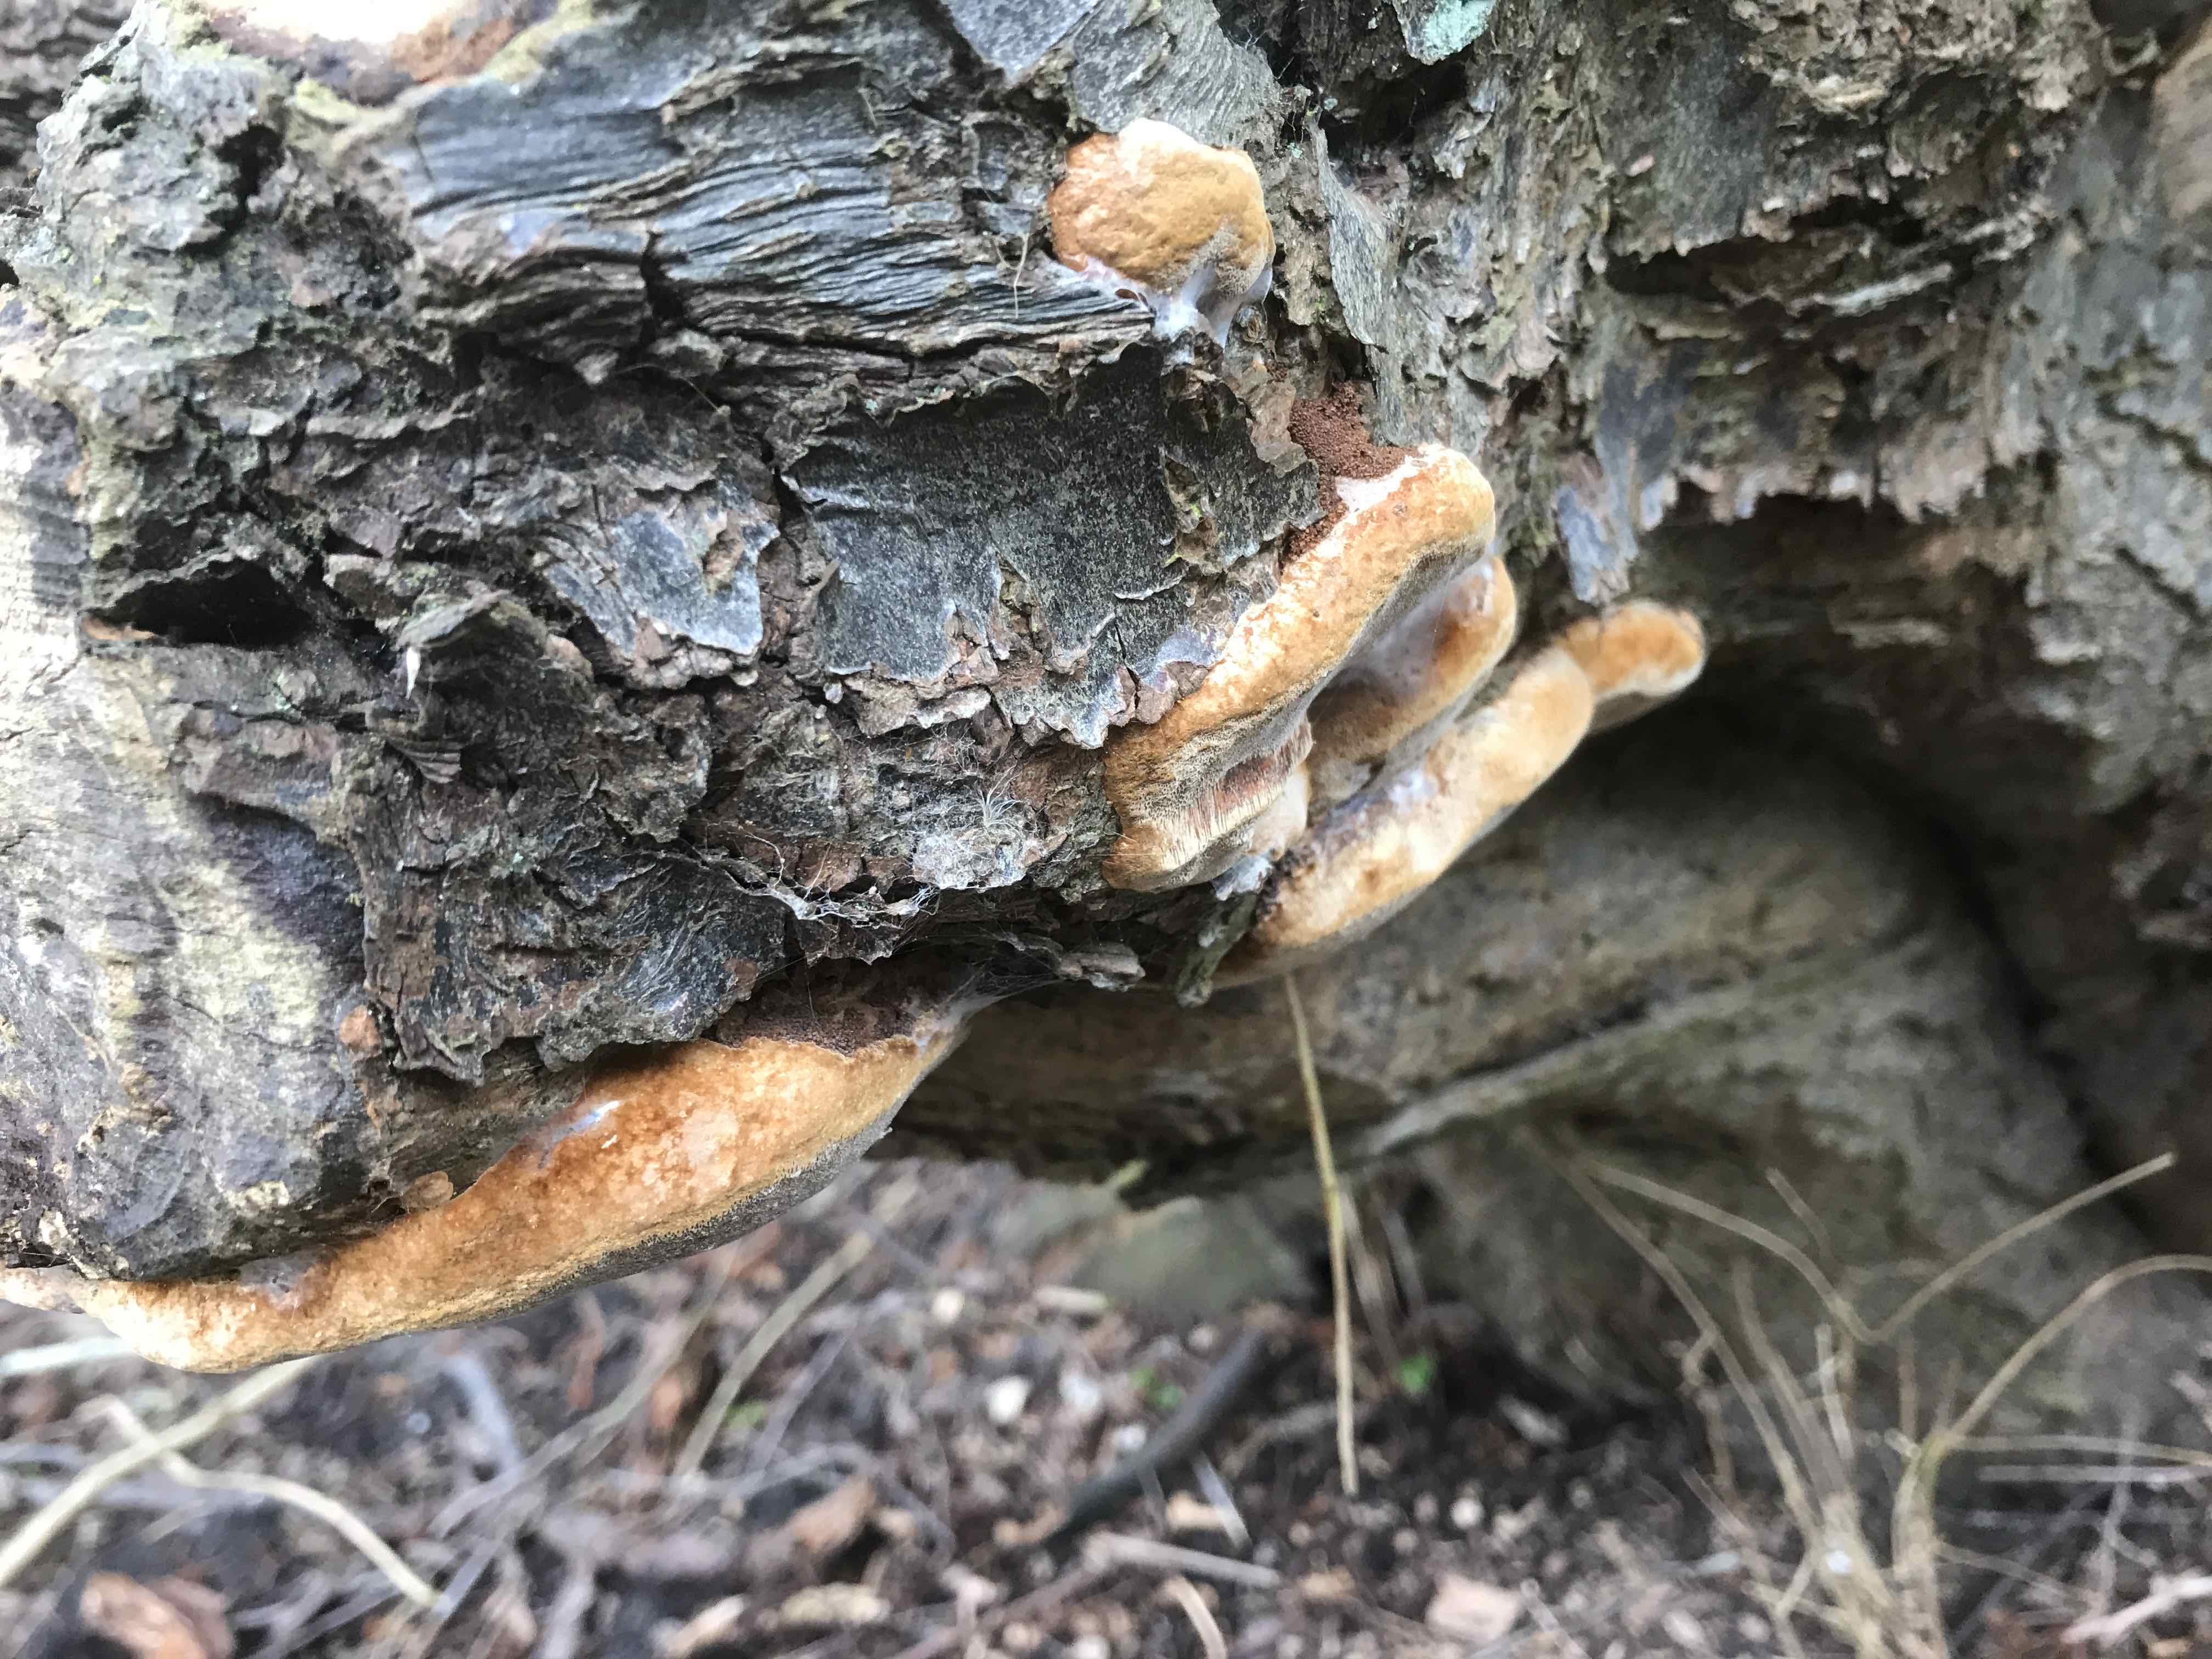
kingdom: Fungi
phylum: Basidiomycota
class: Agaricomycetes
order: Hymenochaetales
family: Hymenochaetaceae
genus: Phellinus
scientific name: Phellinus pomaceus
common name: blomme-ildporesvamp
